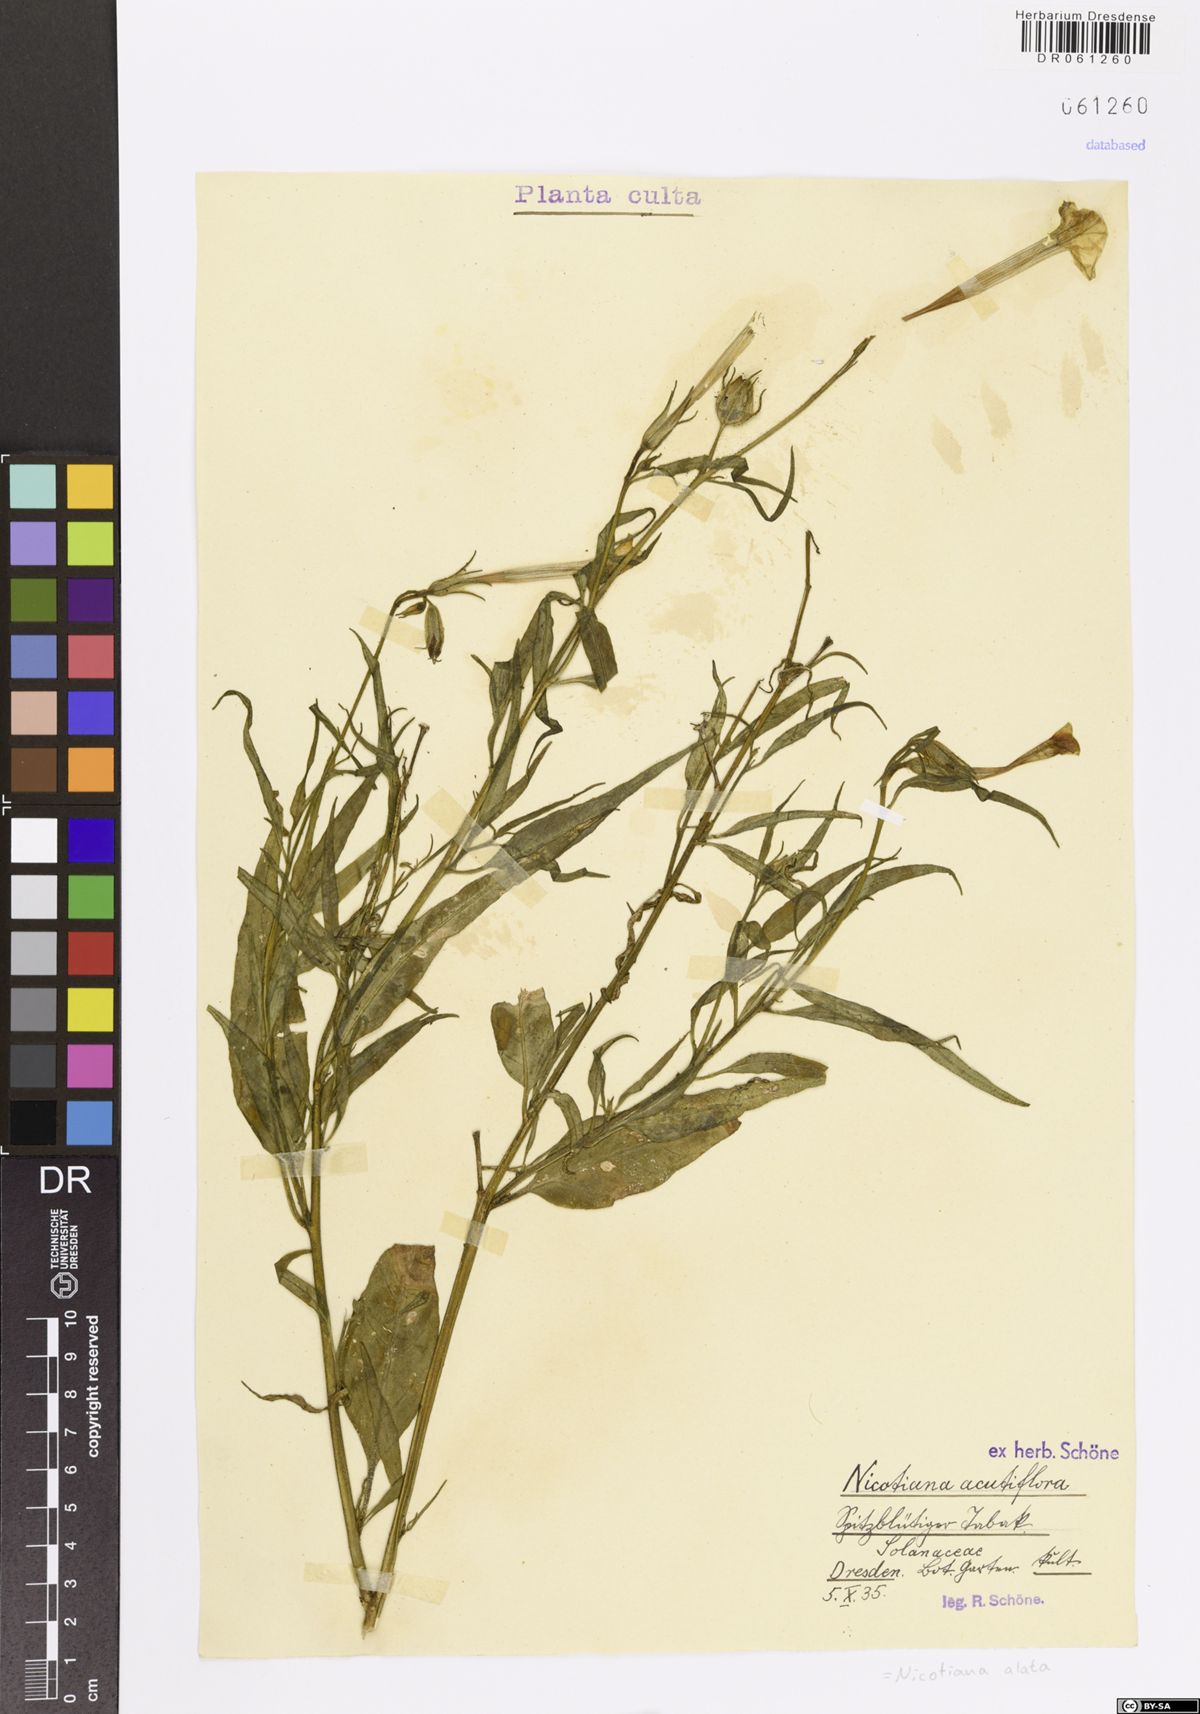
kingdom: Plantae
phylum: Tracheophyta
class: Magnoliopsida
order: Solanales
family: Solanaceae
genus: Nicotiana
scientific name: Nicotiana alata
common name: Jasmine tobacco
